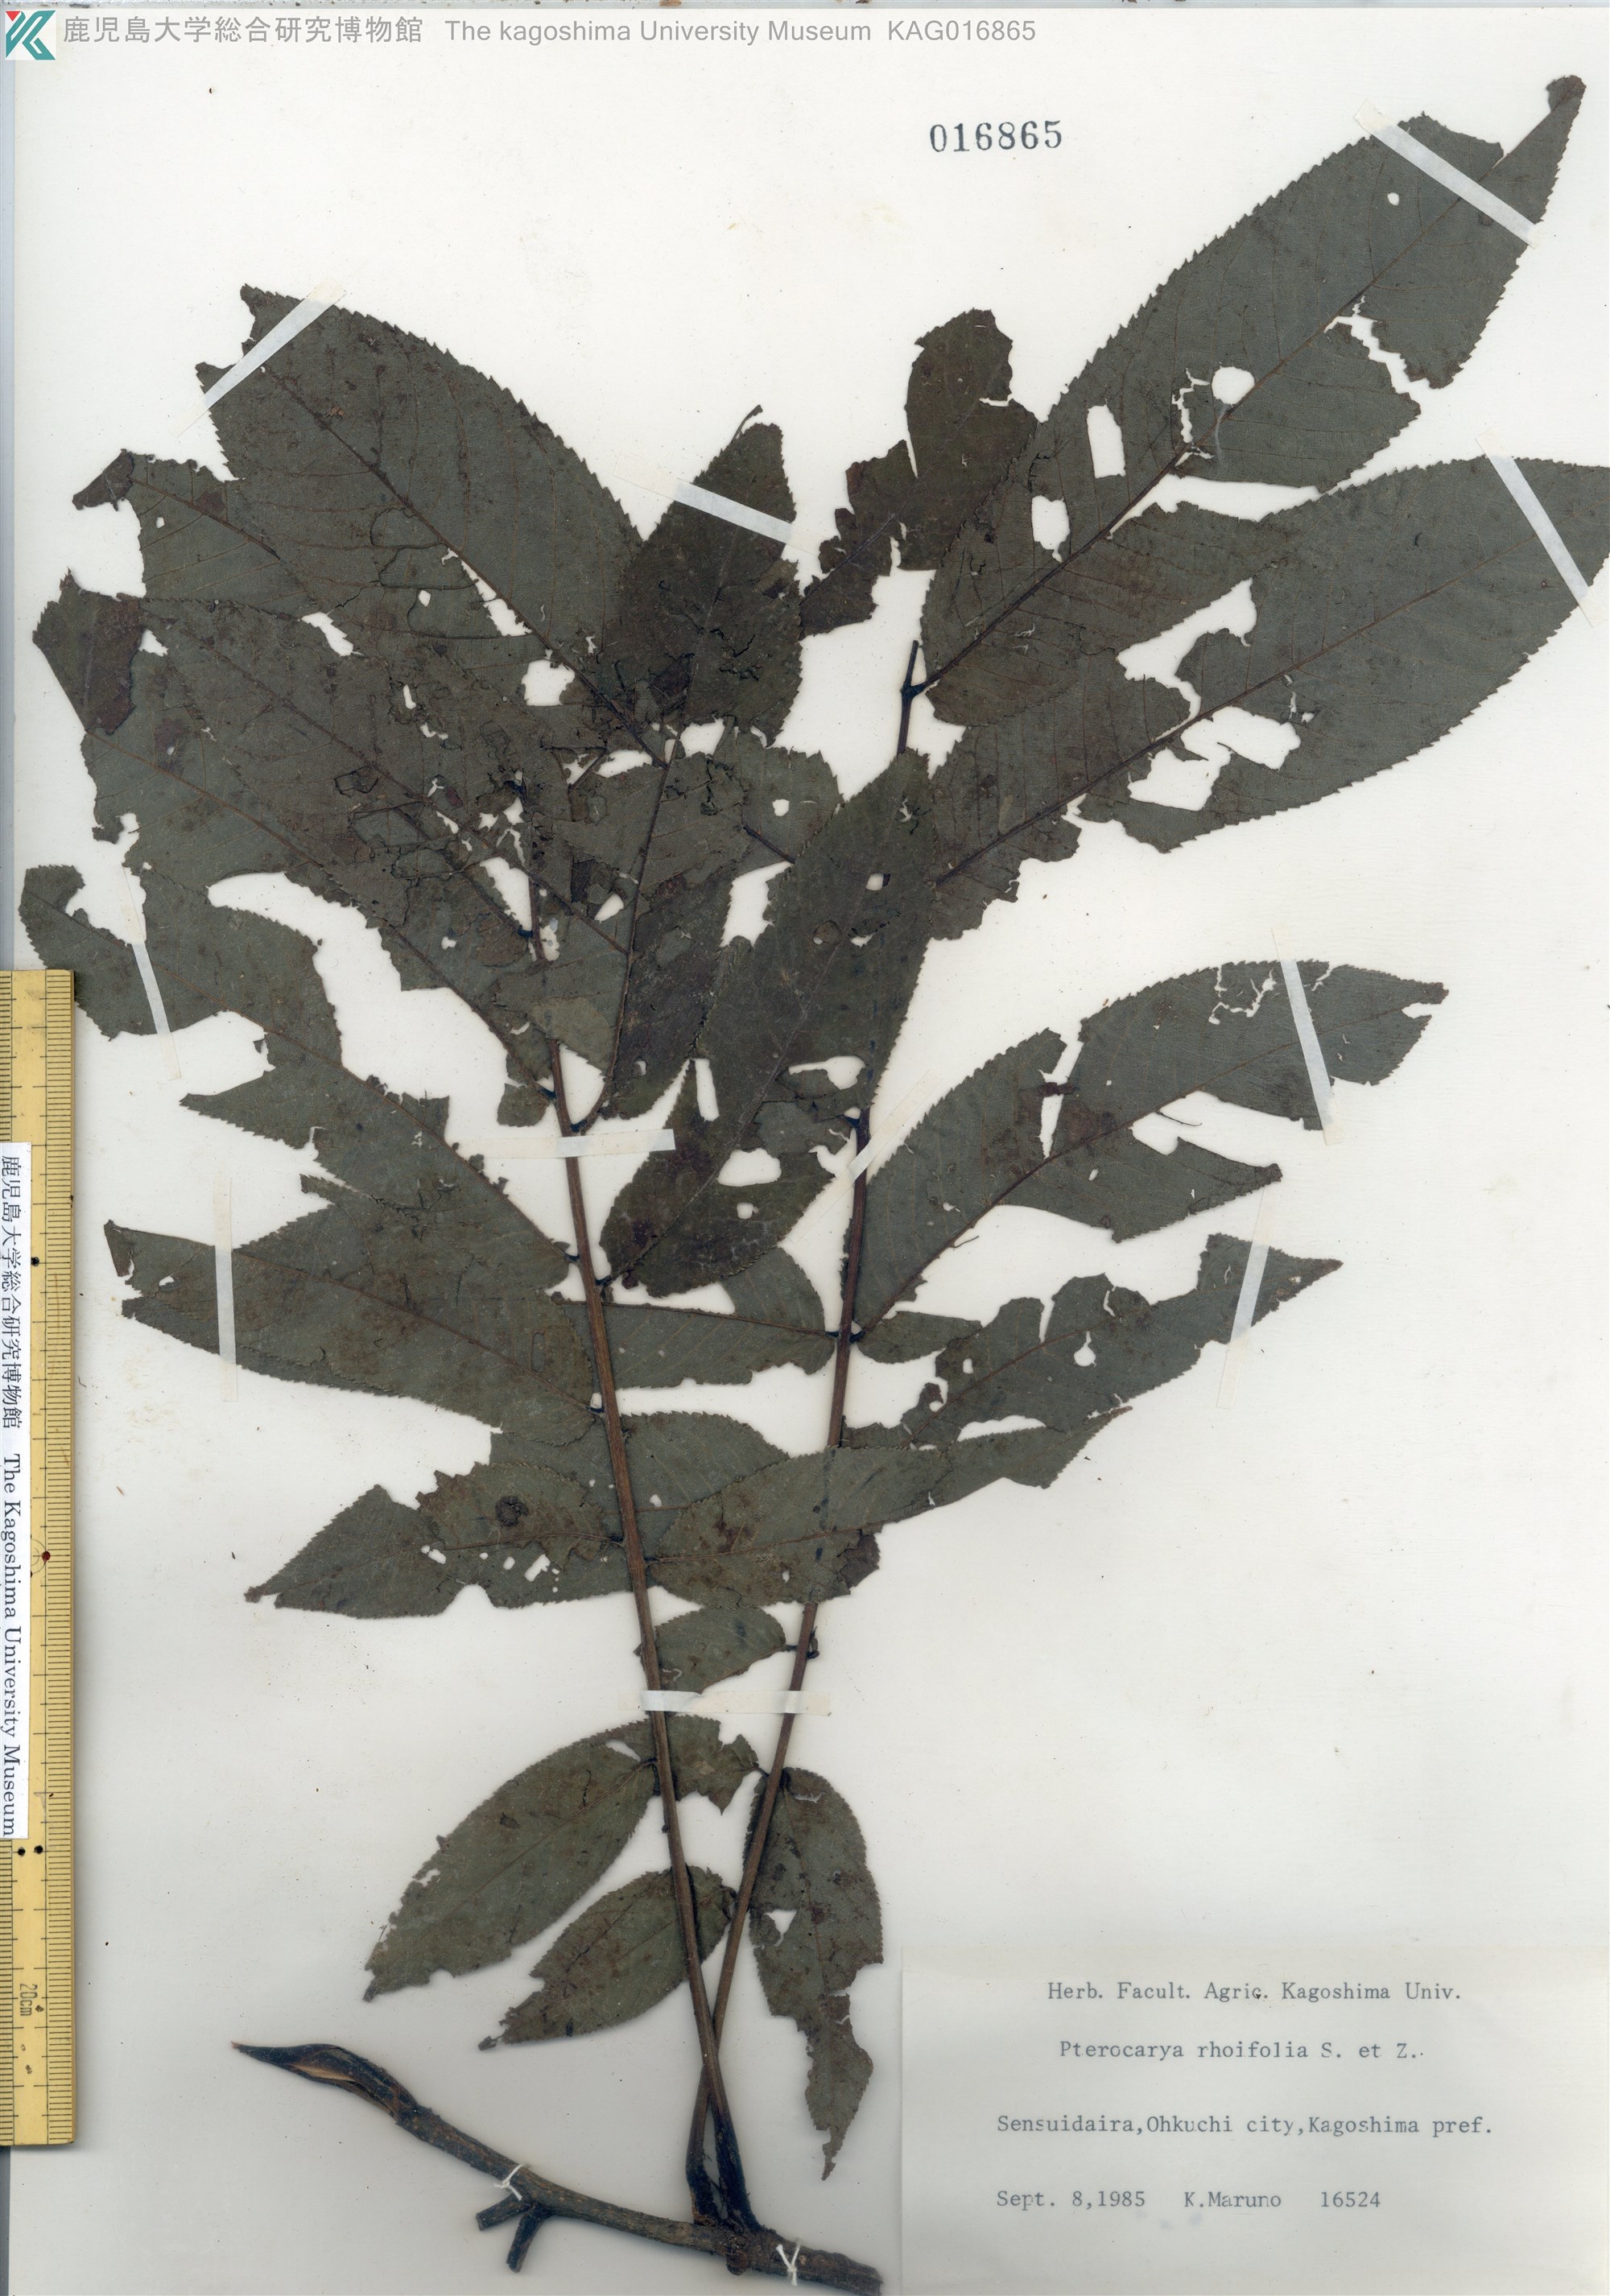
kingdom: Plantae
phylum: Tracheophyta
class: Magnoliopsida
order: Fagales
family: Juglandaceae
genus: Pterocarya
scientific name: Pterocarya rhoifolia
